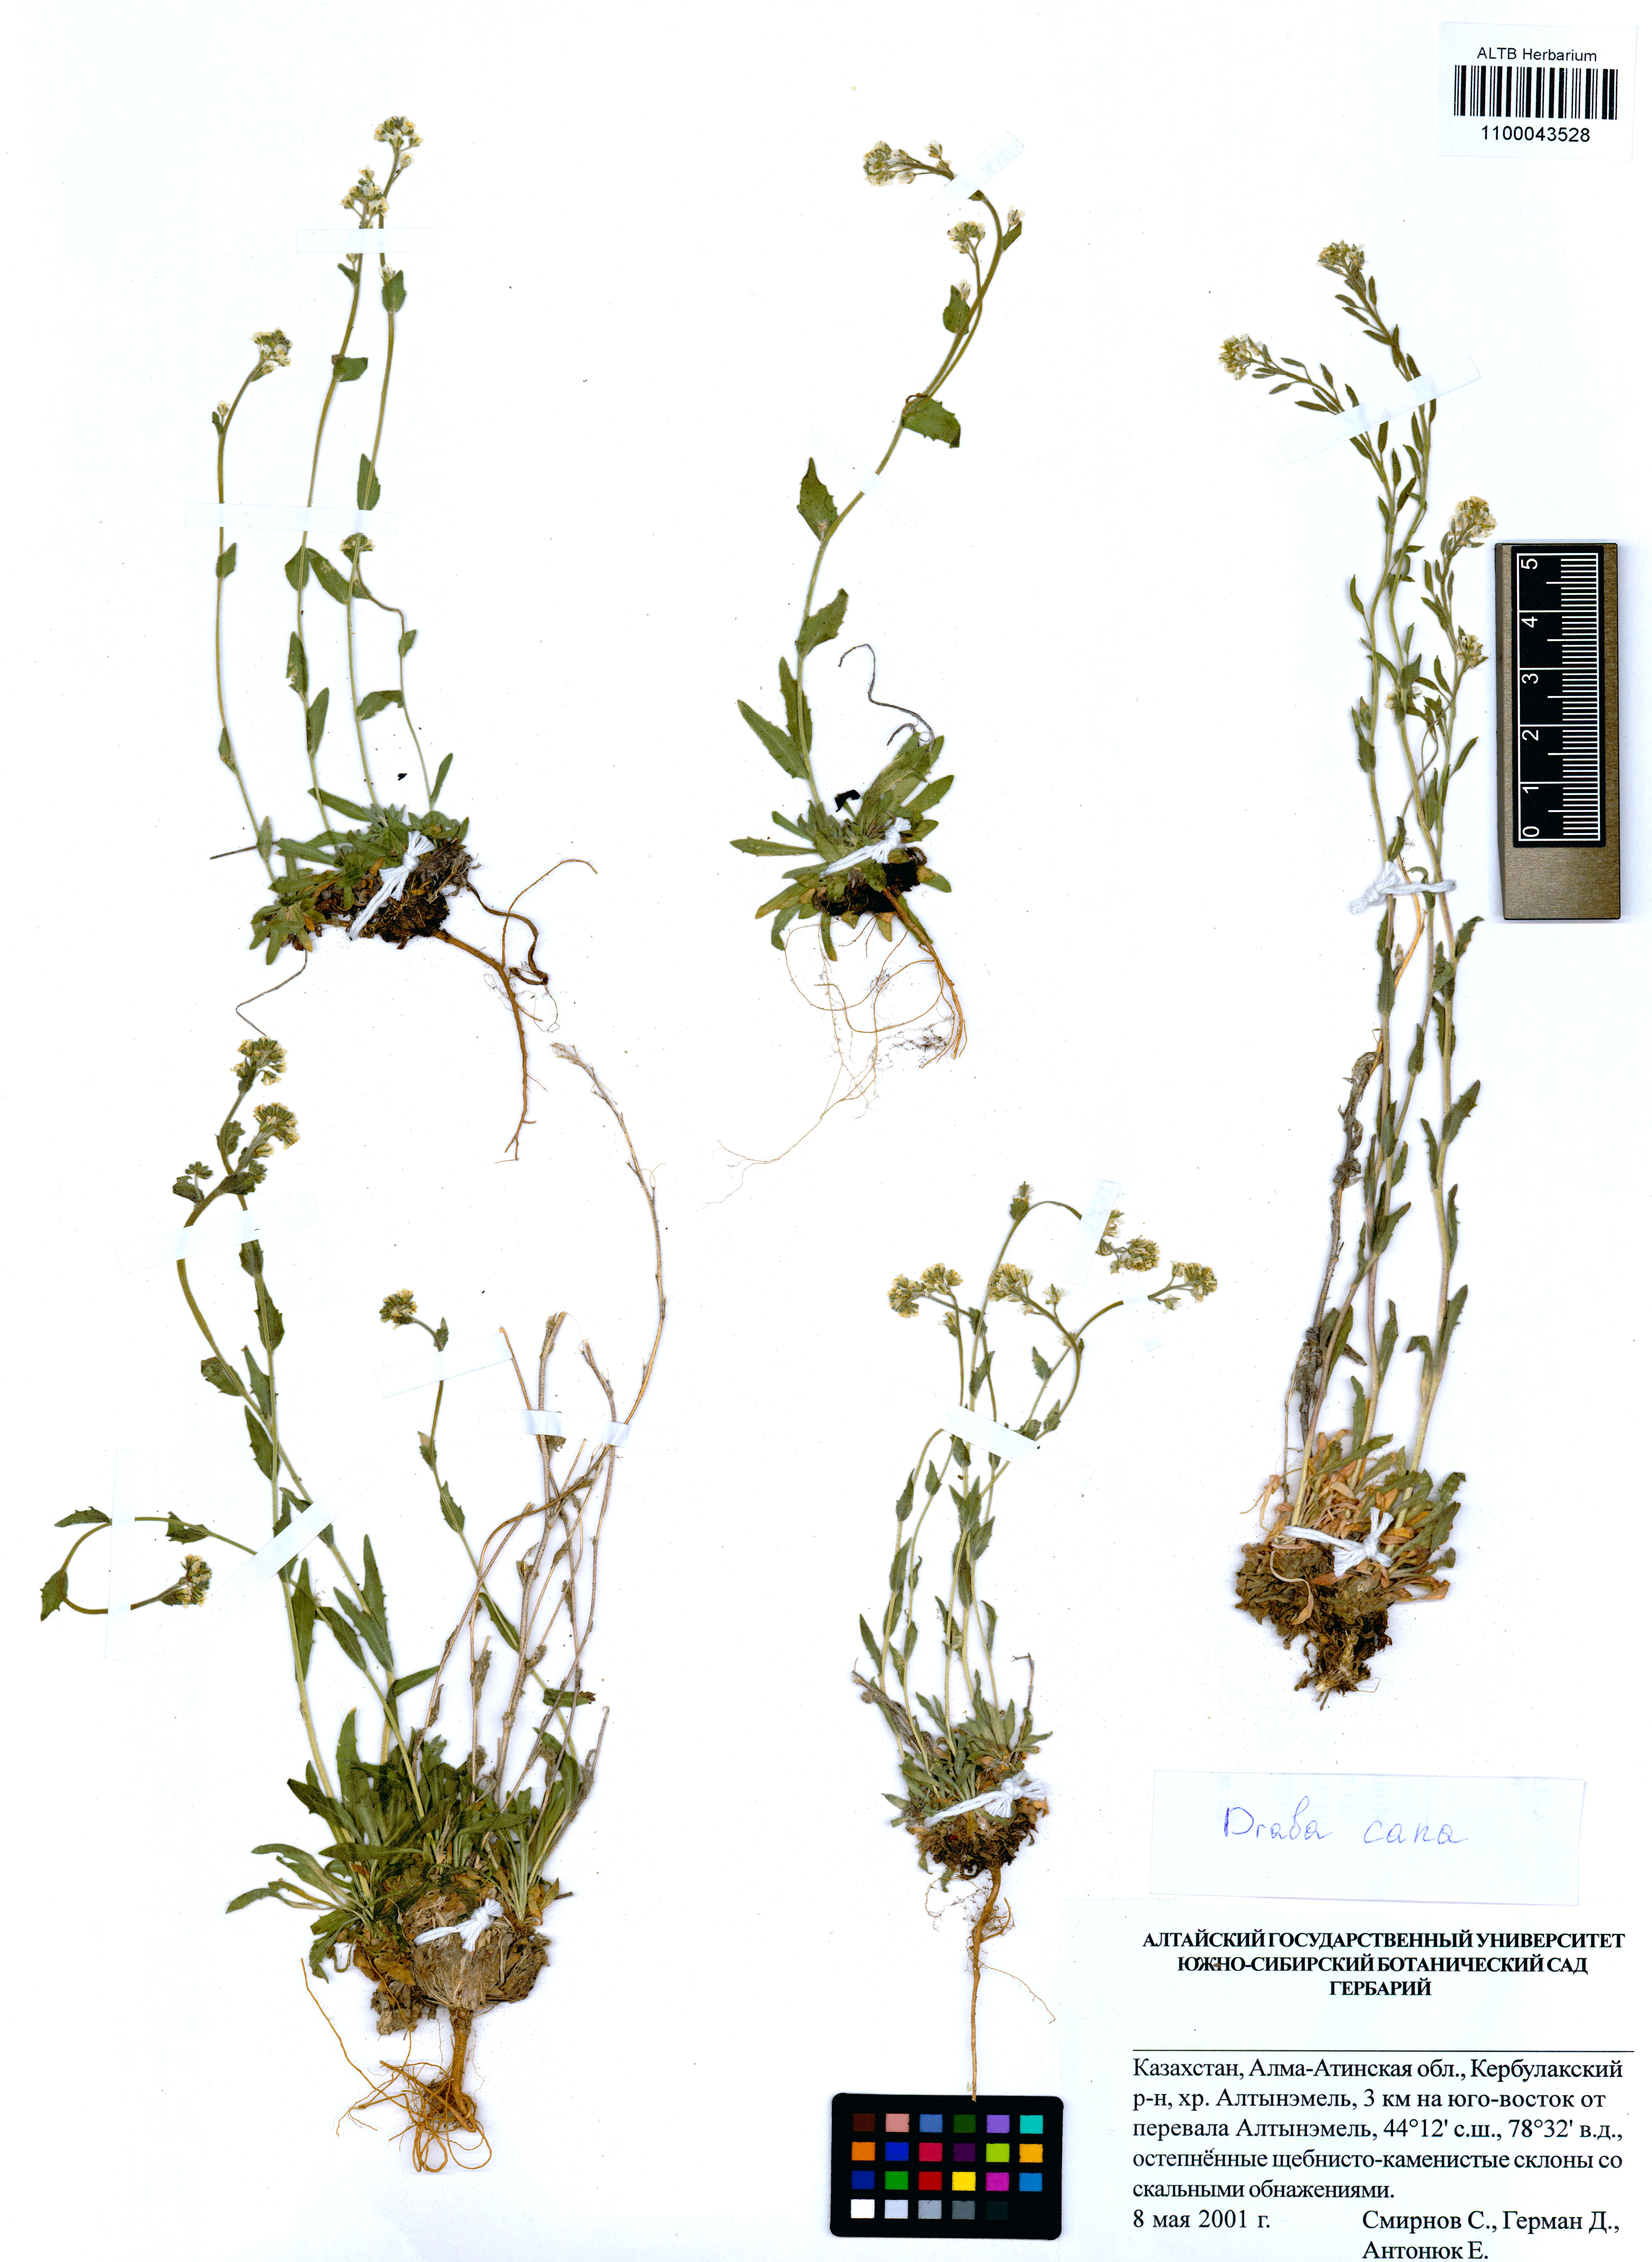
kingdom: Plantae
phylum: Tracheophyta
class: Magnoliopsida
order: Brassicales
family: Brassicaceae
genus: Draba
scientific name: Draba cana
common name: Hoary draba
